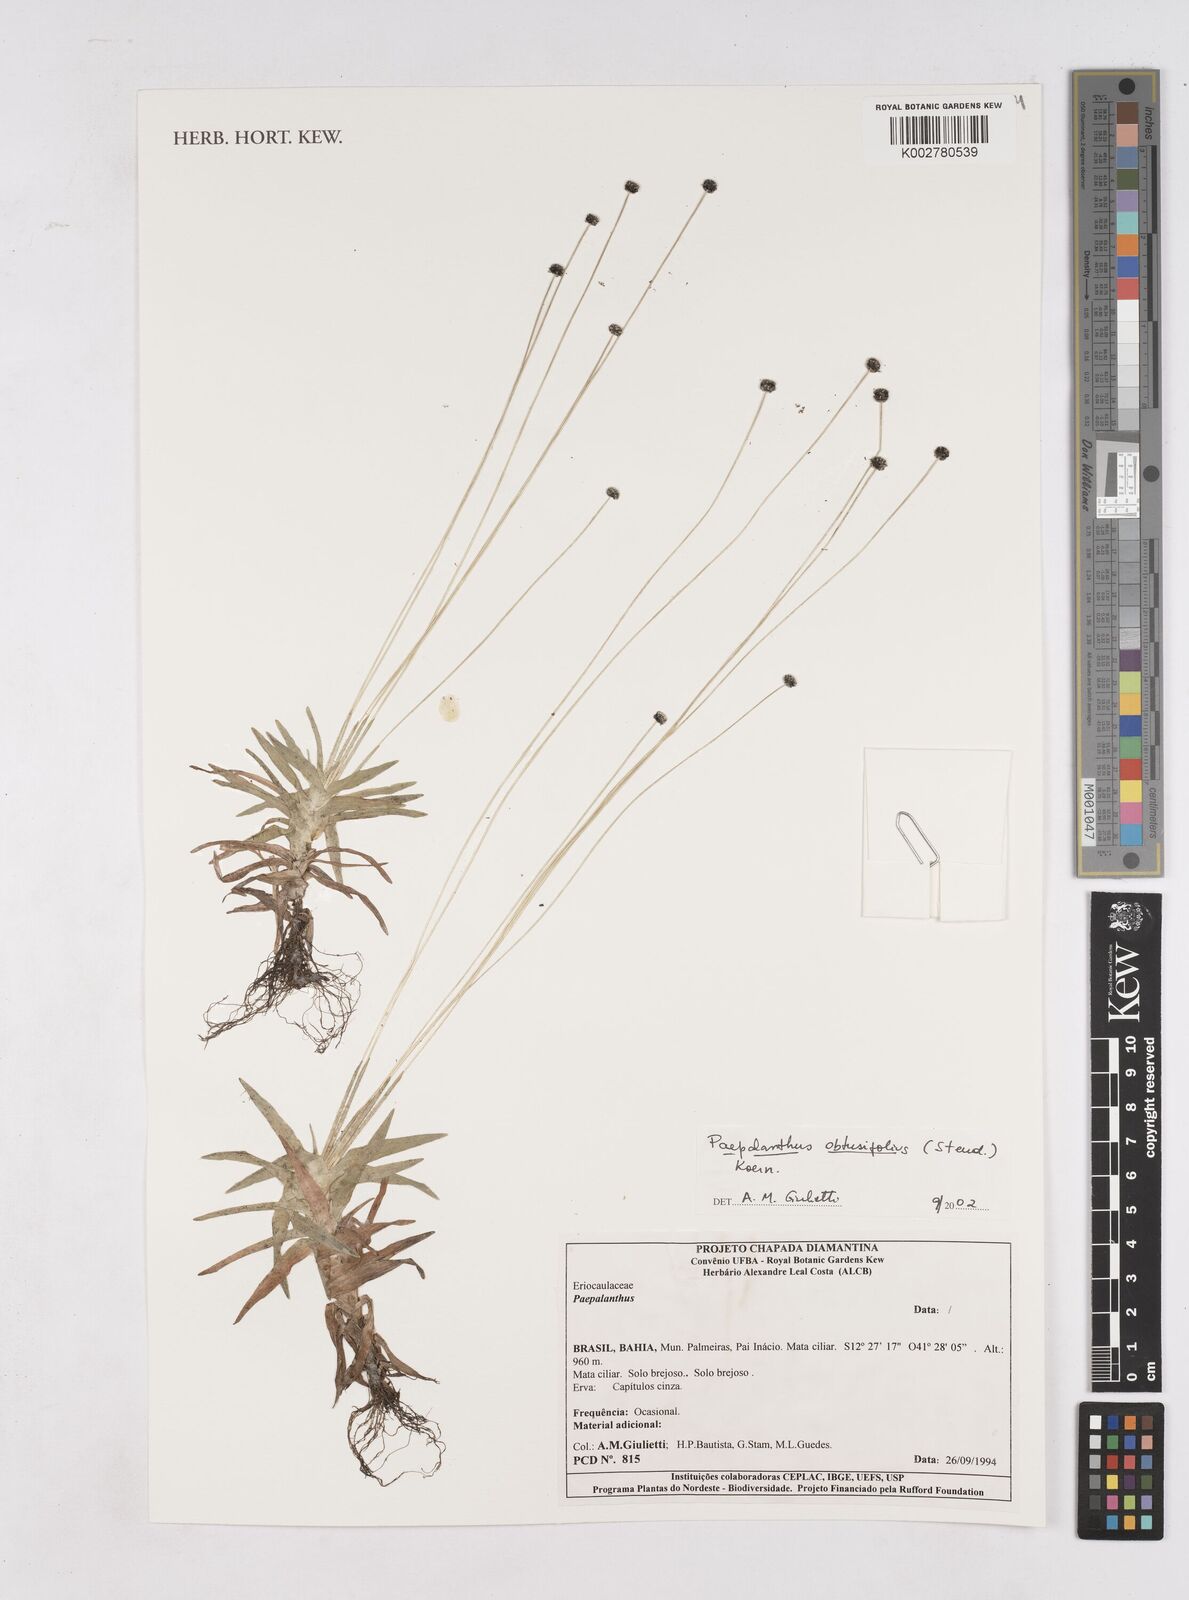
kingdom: Plantae
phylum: Tracheophyta
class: Liliopsida
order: Poales
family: Eriocaulaceae
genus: Paepalanthus
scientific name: Paepalanthus obtusifolius
